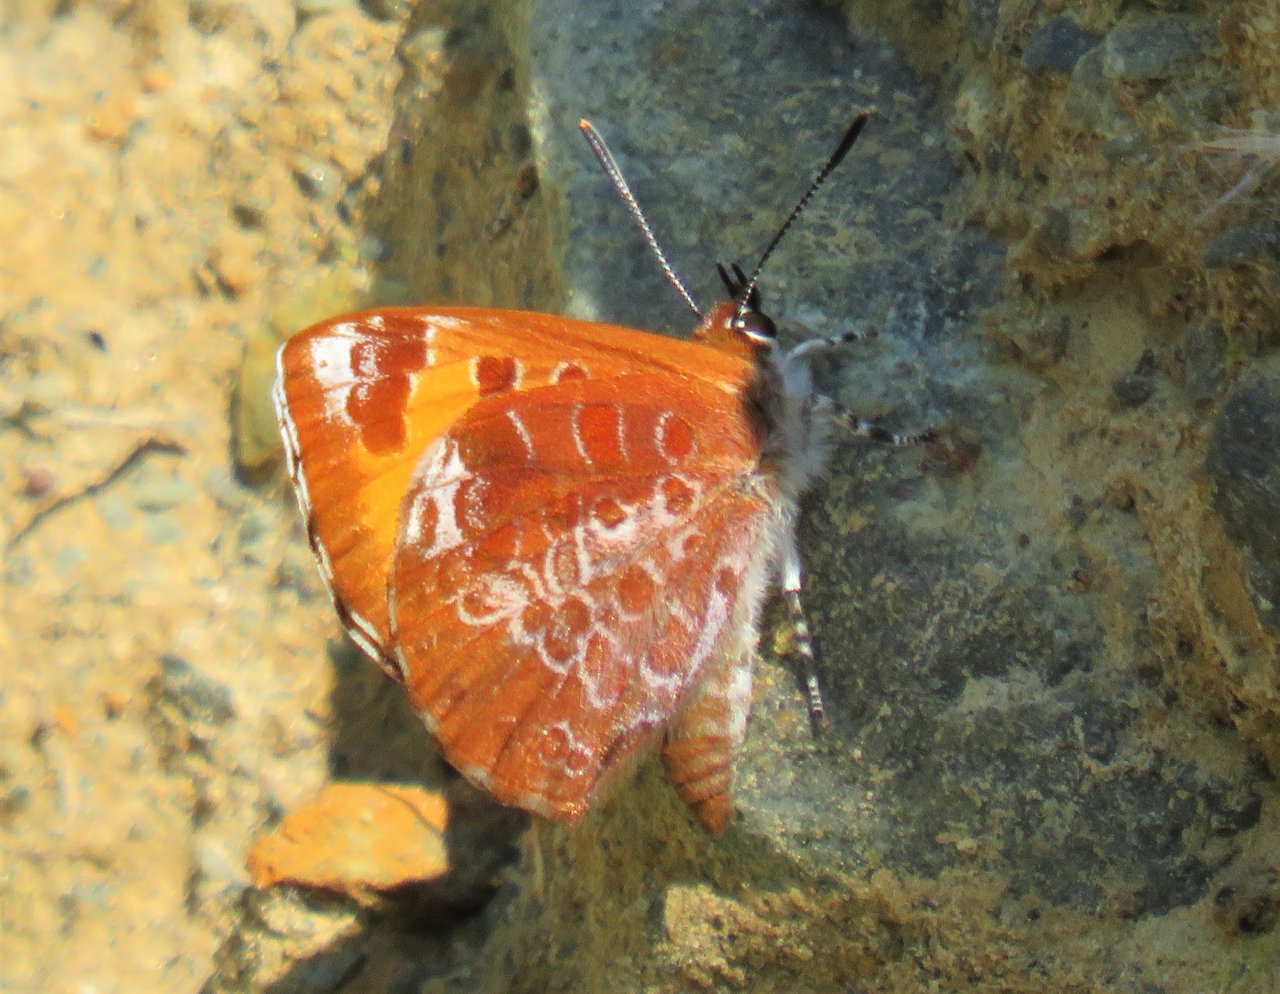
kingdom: Animalia
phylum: Arthropoda
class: Insecta
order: Lepidoptera
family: Lycaenidae
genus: Feniseca
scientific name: Feniseca tarquinius
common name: Harvester
